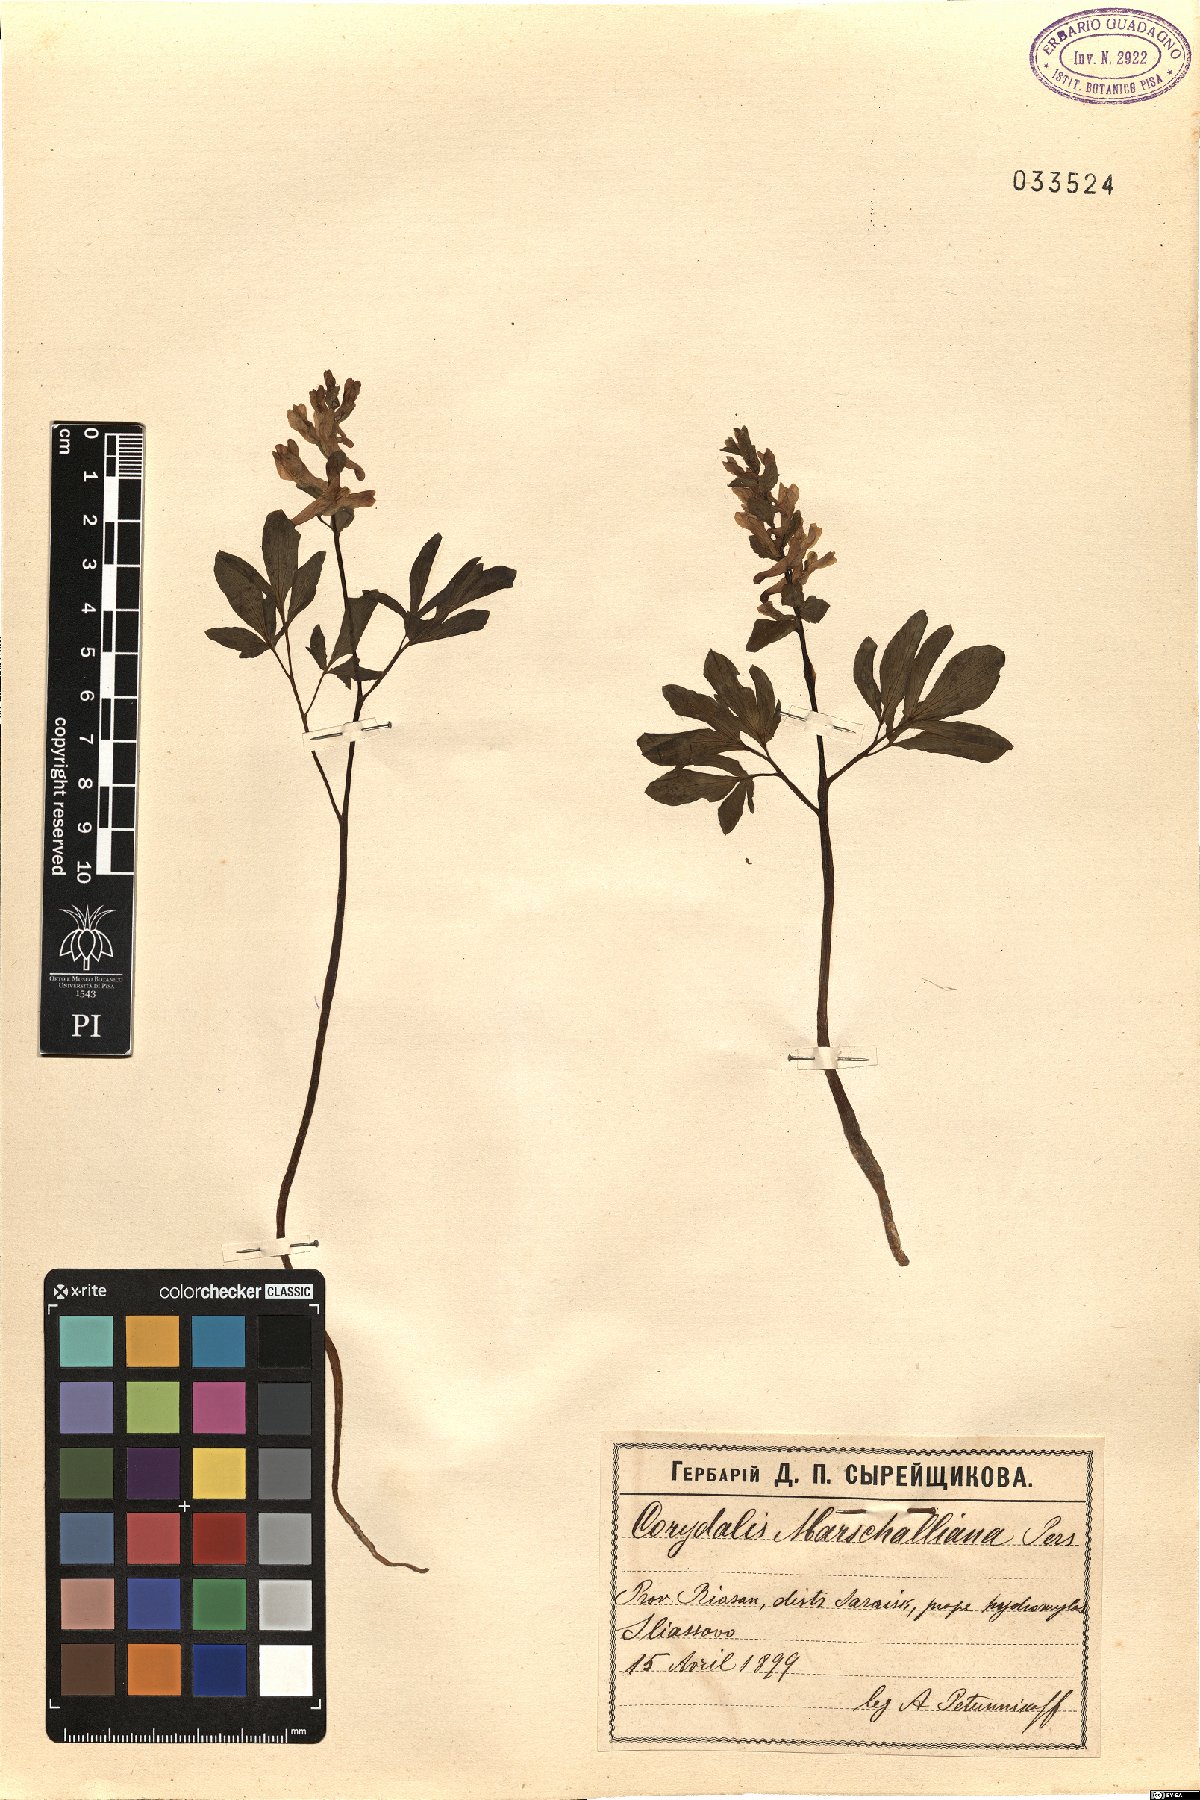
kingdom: Plantae
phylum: Tracheophyta
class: Magnoliopsida
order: Ranunculales
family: Papaveraceae
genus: Corydalis
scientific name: Corydalis cava
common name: Hollowroot
